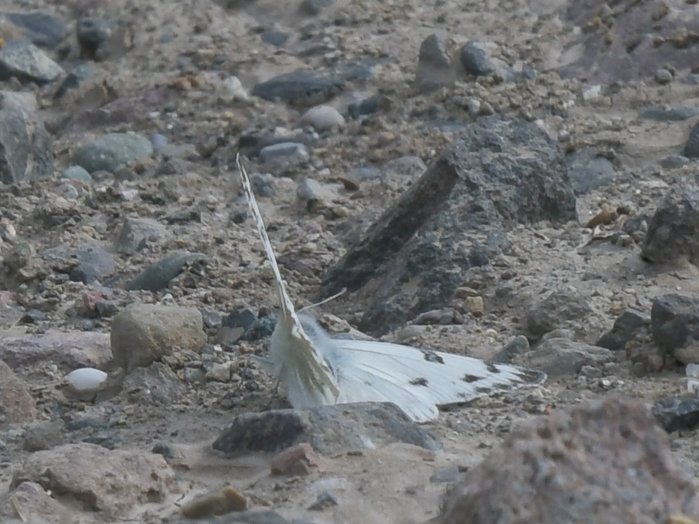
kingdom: Animalia
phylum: Arthropoda
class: Insecta
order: Lepidoptera
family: Pieridae
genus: Pontia
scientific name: Pontia occidentalis
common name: Western White
